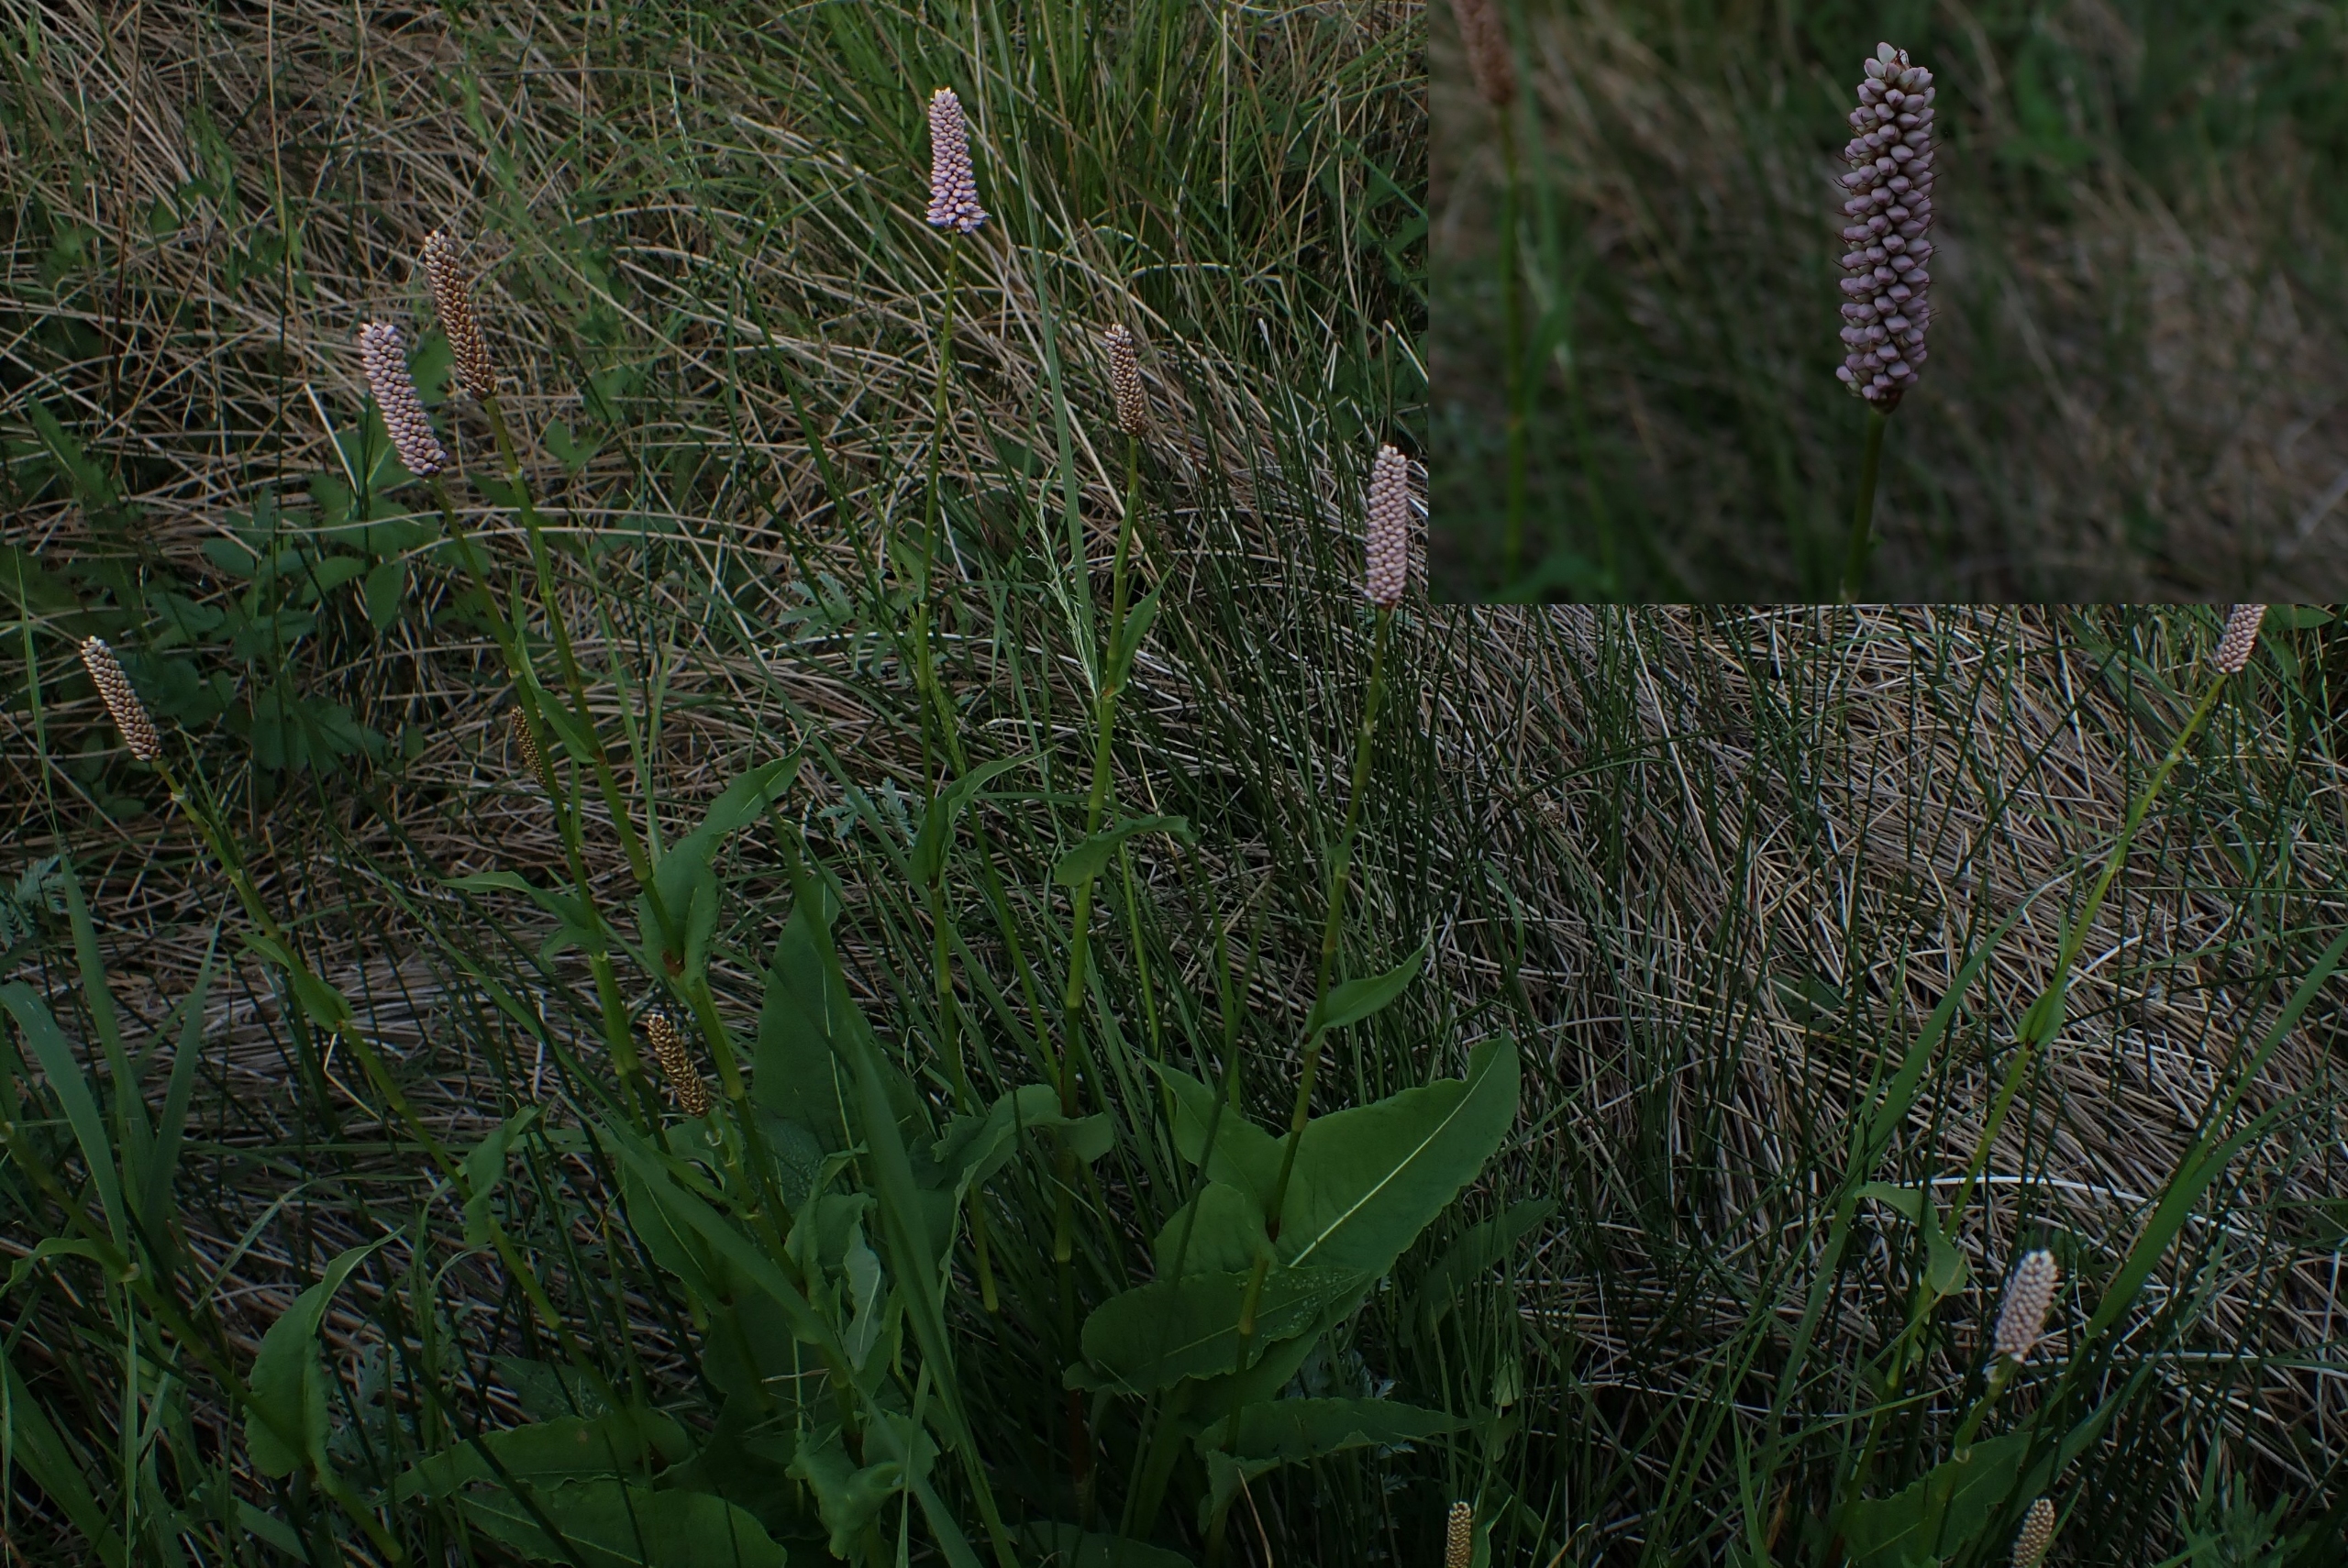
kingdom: Plantae
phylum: Tracheophyta
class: Magnoliopsida
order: Caryophyllales
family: Polygonaceae
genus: Bistorta
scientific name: Bistorta officinalis
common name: Slangeurt
